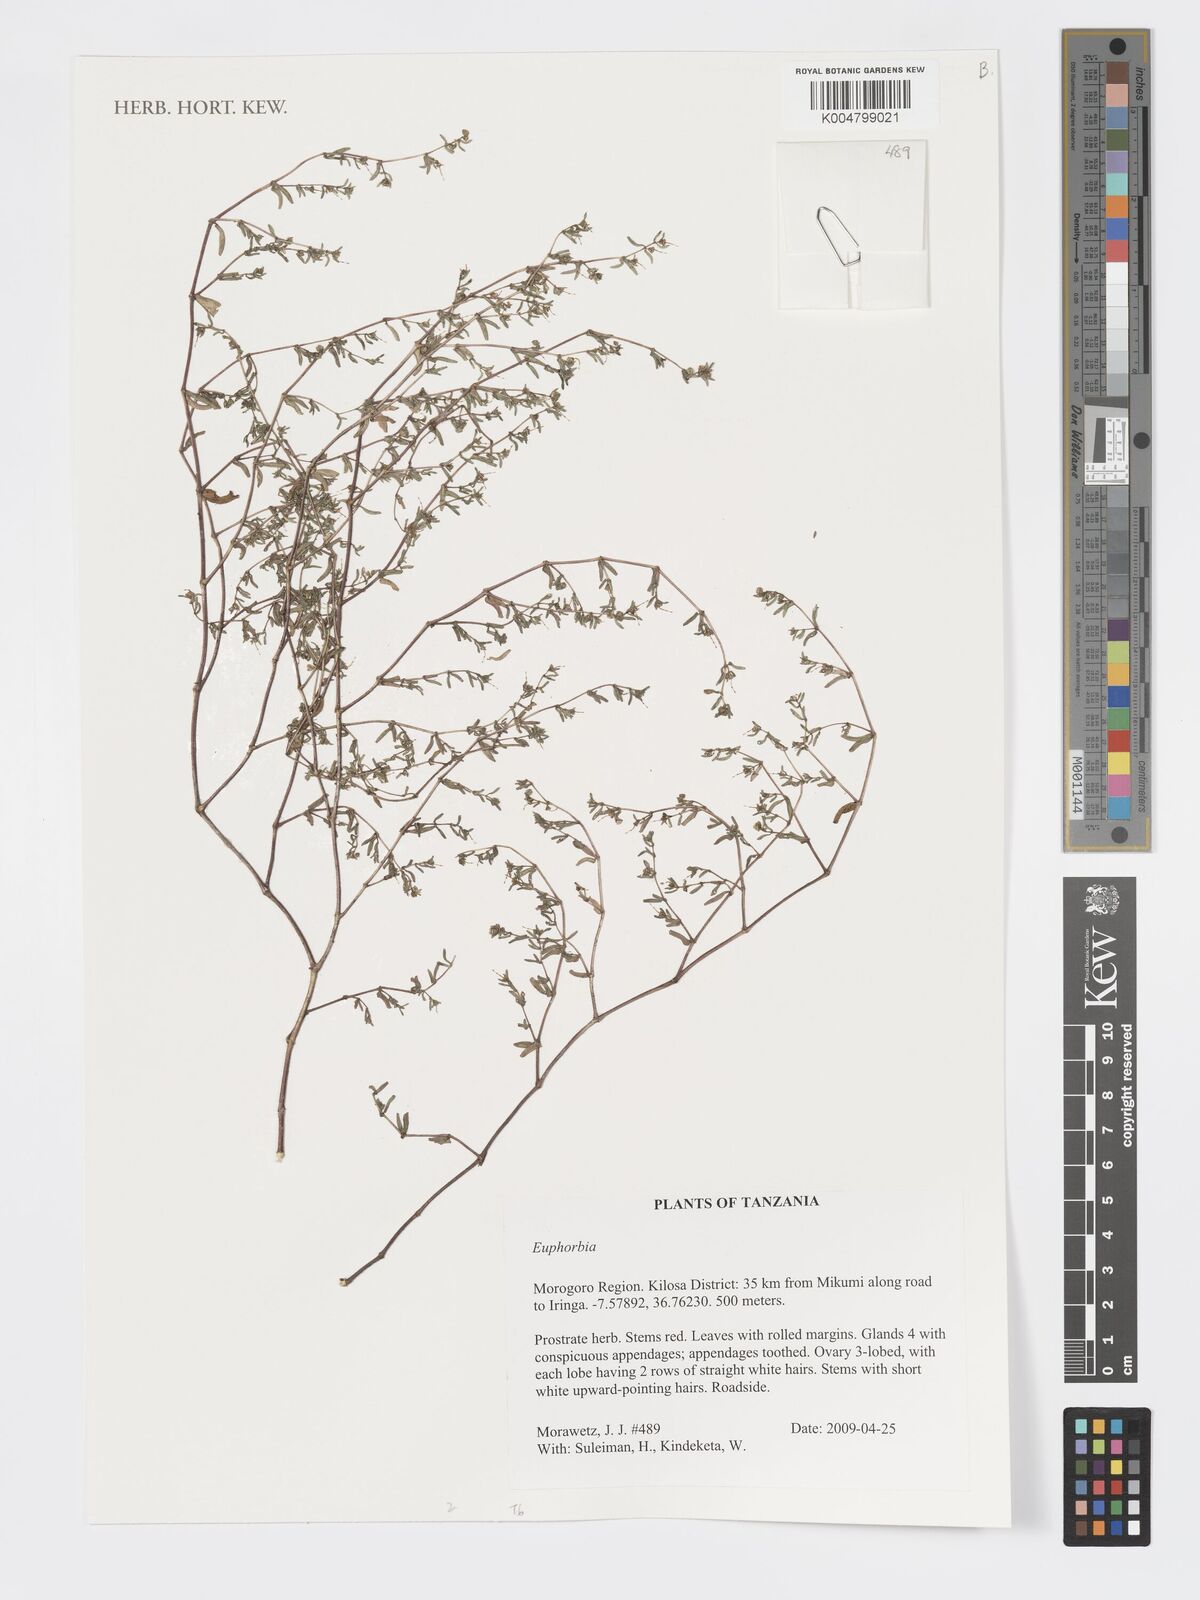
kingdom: Plantae
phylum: Tracheophyta
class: Magnoliopsida
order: Malpighiales
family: Euphorbiaceae
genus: Euphorbia
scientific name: Euphorbia
